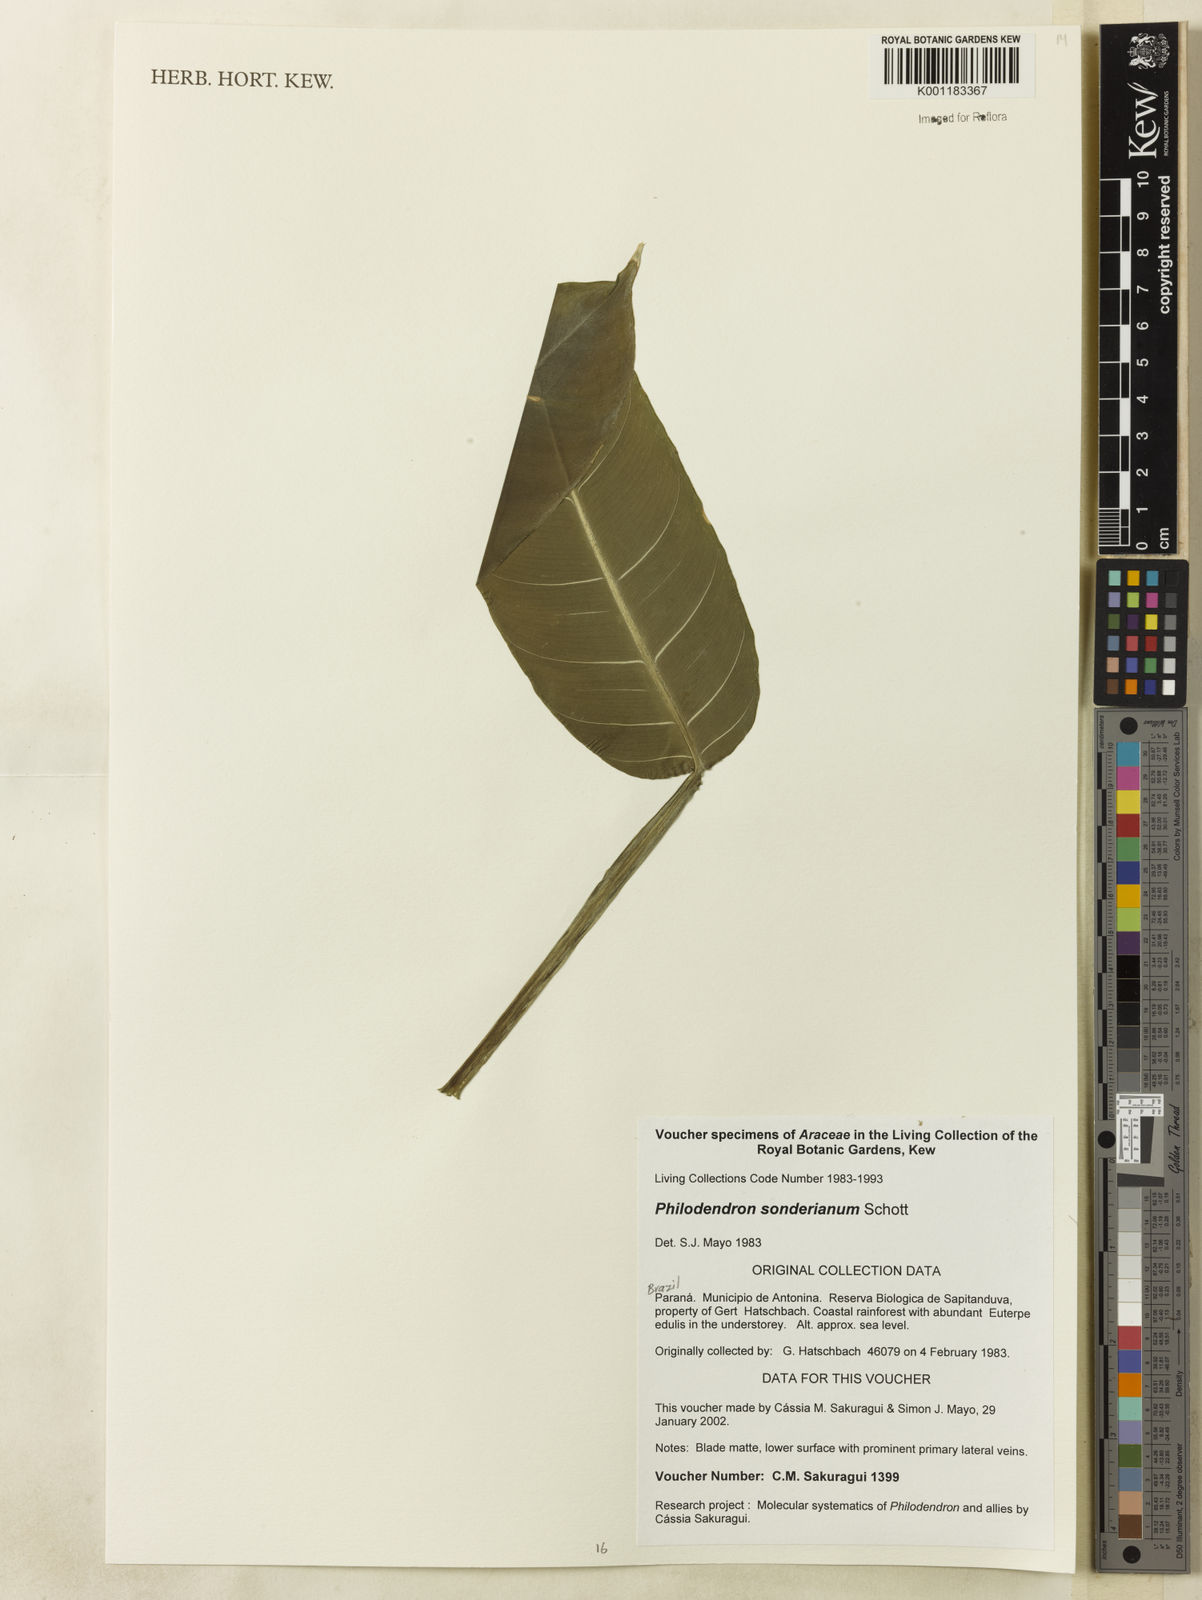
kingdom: Plantae
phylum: Tracheophyta
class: Liliopsida
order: Alismatales
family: Araceae
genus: Philodendron
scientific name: Philodendron sonderianum
